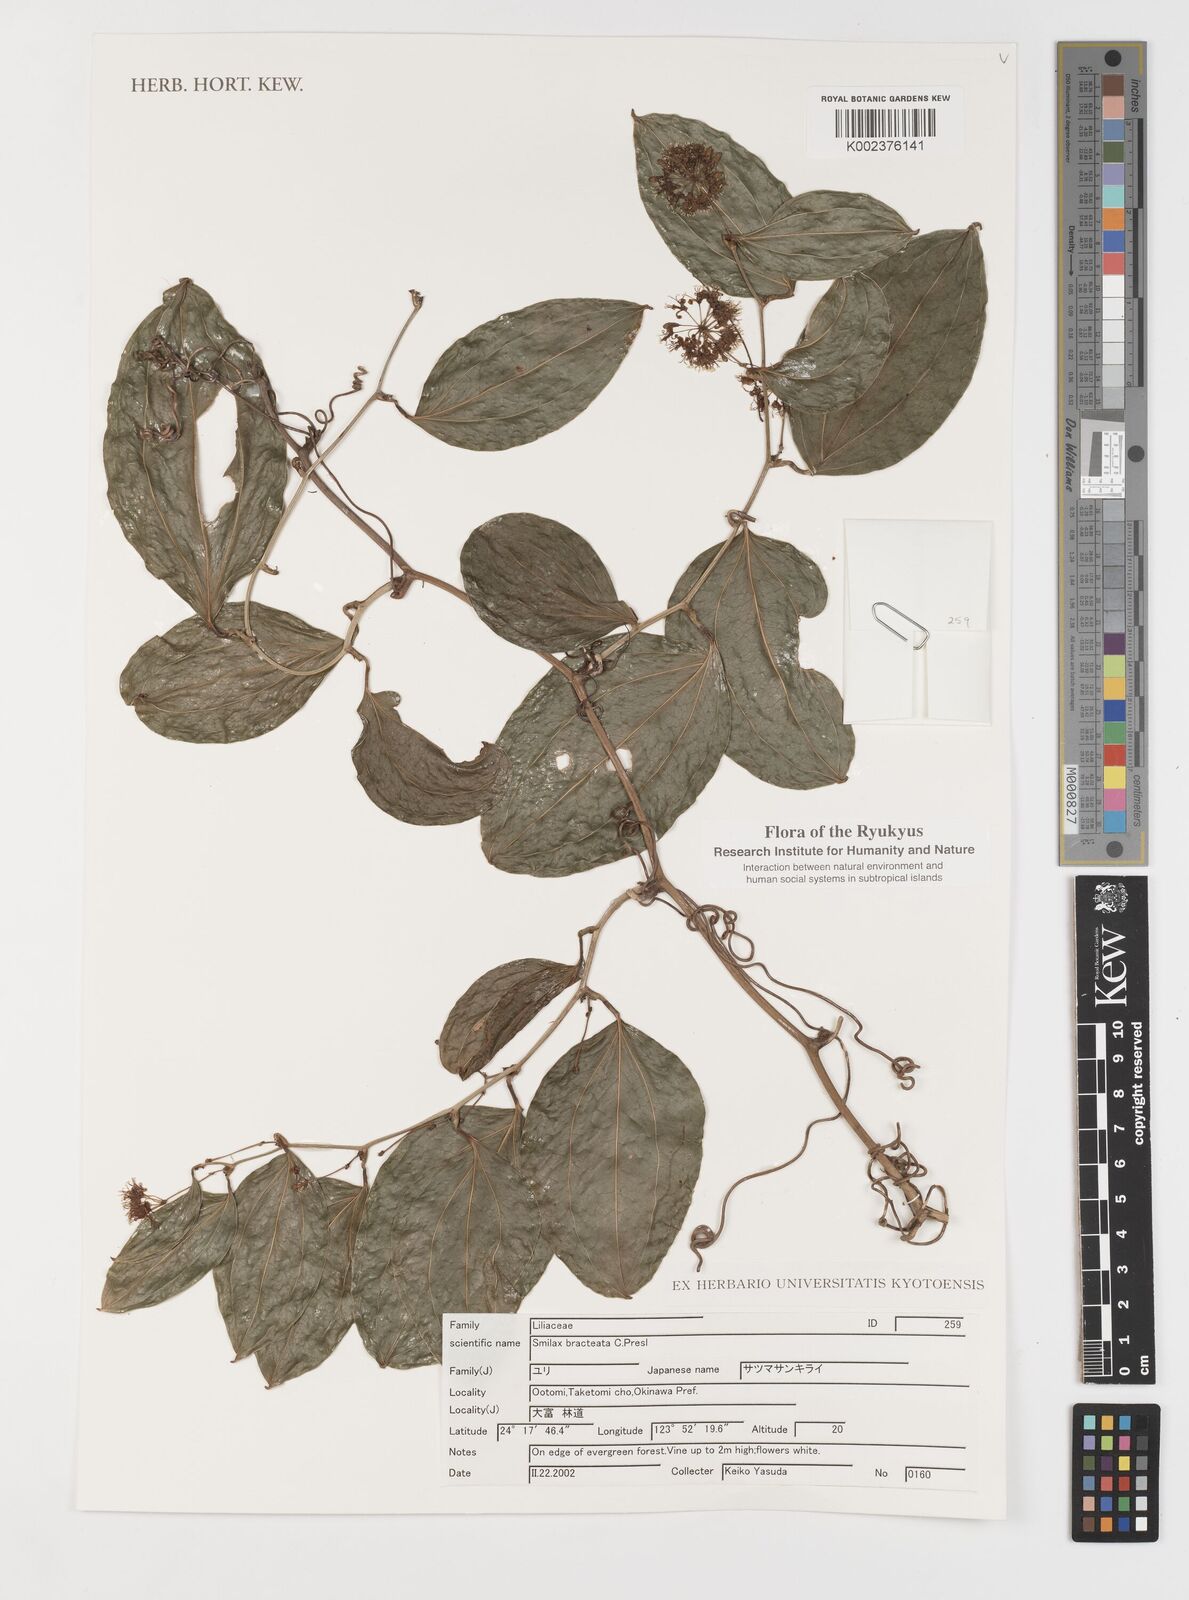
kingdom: Plantae
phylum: Tracheophyta
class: Liliopsida
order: Liliales
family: Smilacaceae
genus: Smilax
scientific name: Smilax bracteata
